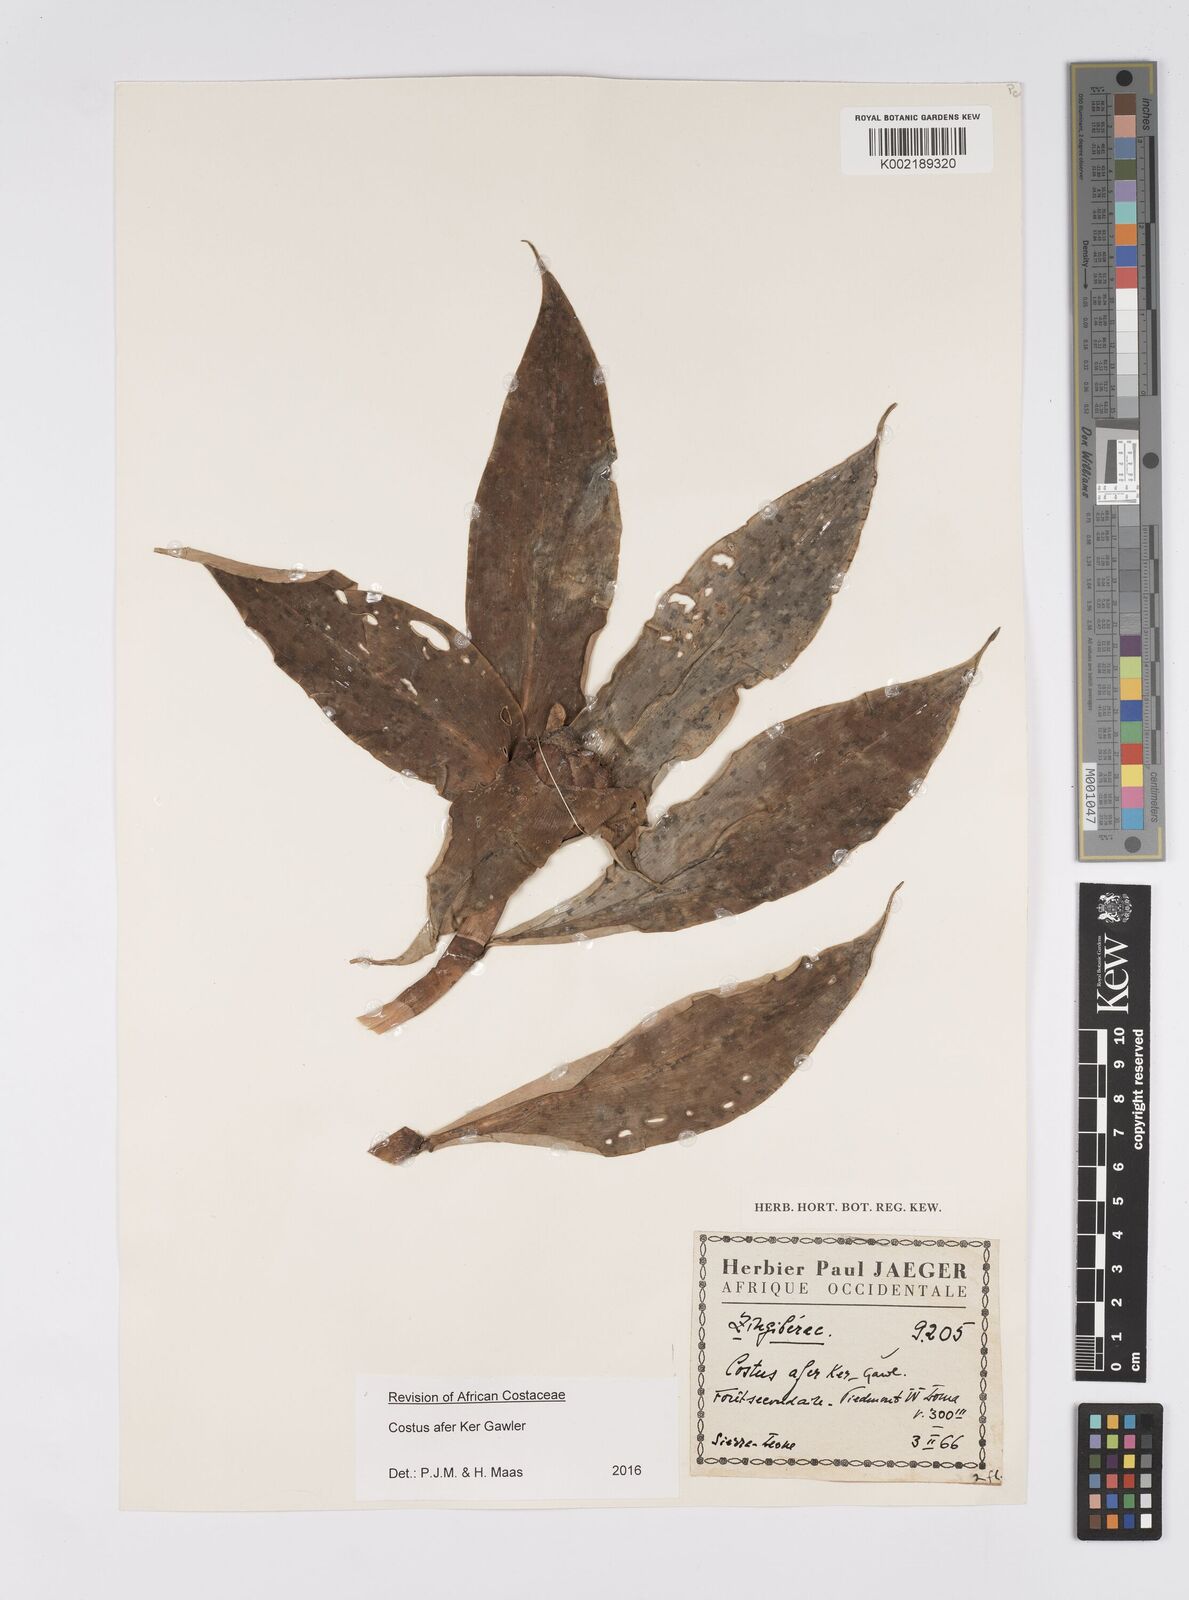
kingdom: Plantae
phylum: Tracheophyta
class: Liliopsida
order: Zingiberales
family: Costaceae
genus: Costus
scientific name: Costus afer
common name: Spiral-ginger
